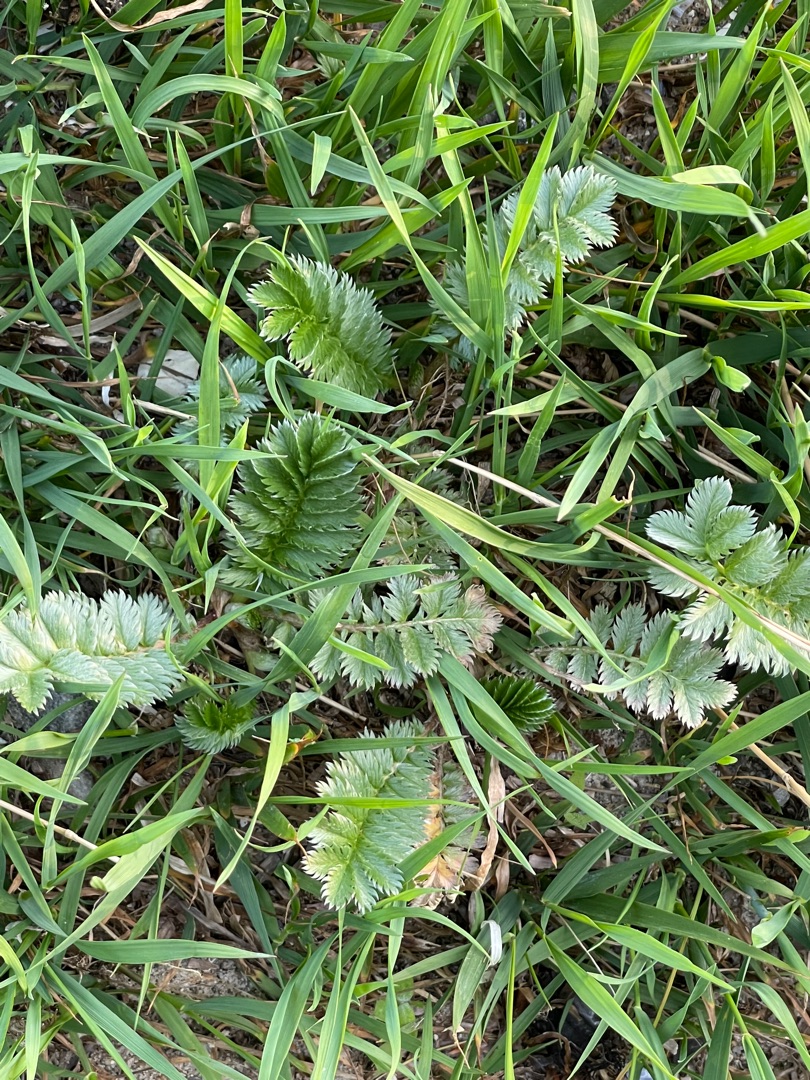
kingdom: Plantae
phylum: Tracheophyta
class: Magnoliopsida
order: Rosales
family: Rosaceae
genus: Argentina
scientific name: Argentina anserina
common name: Gåsepotentil
